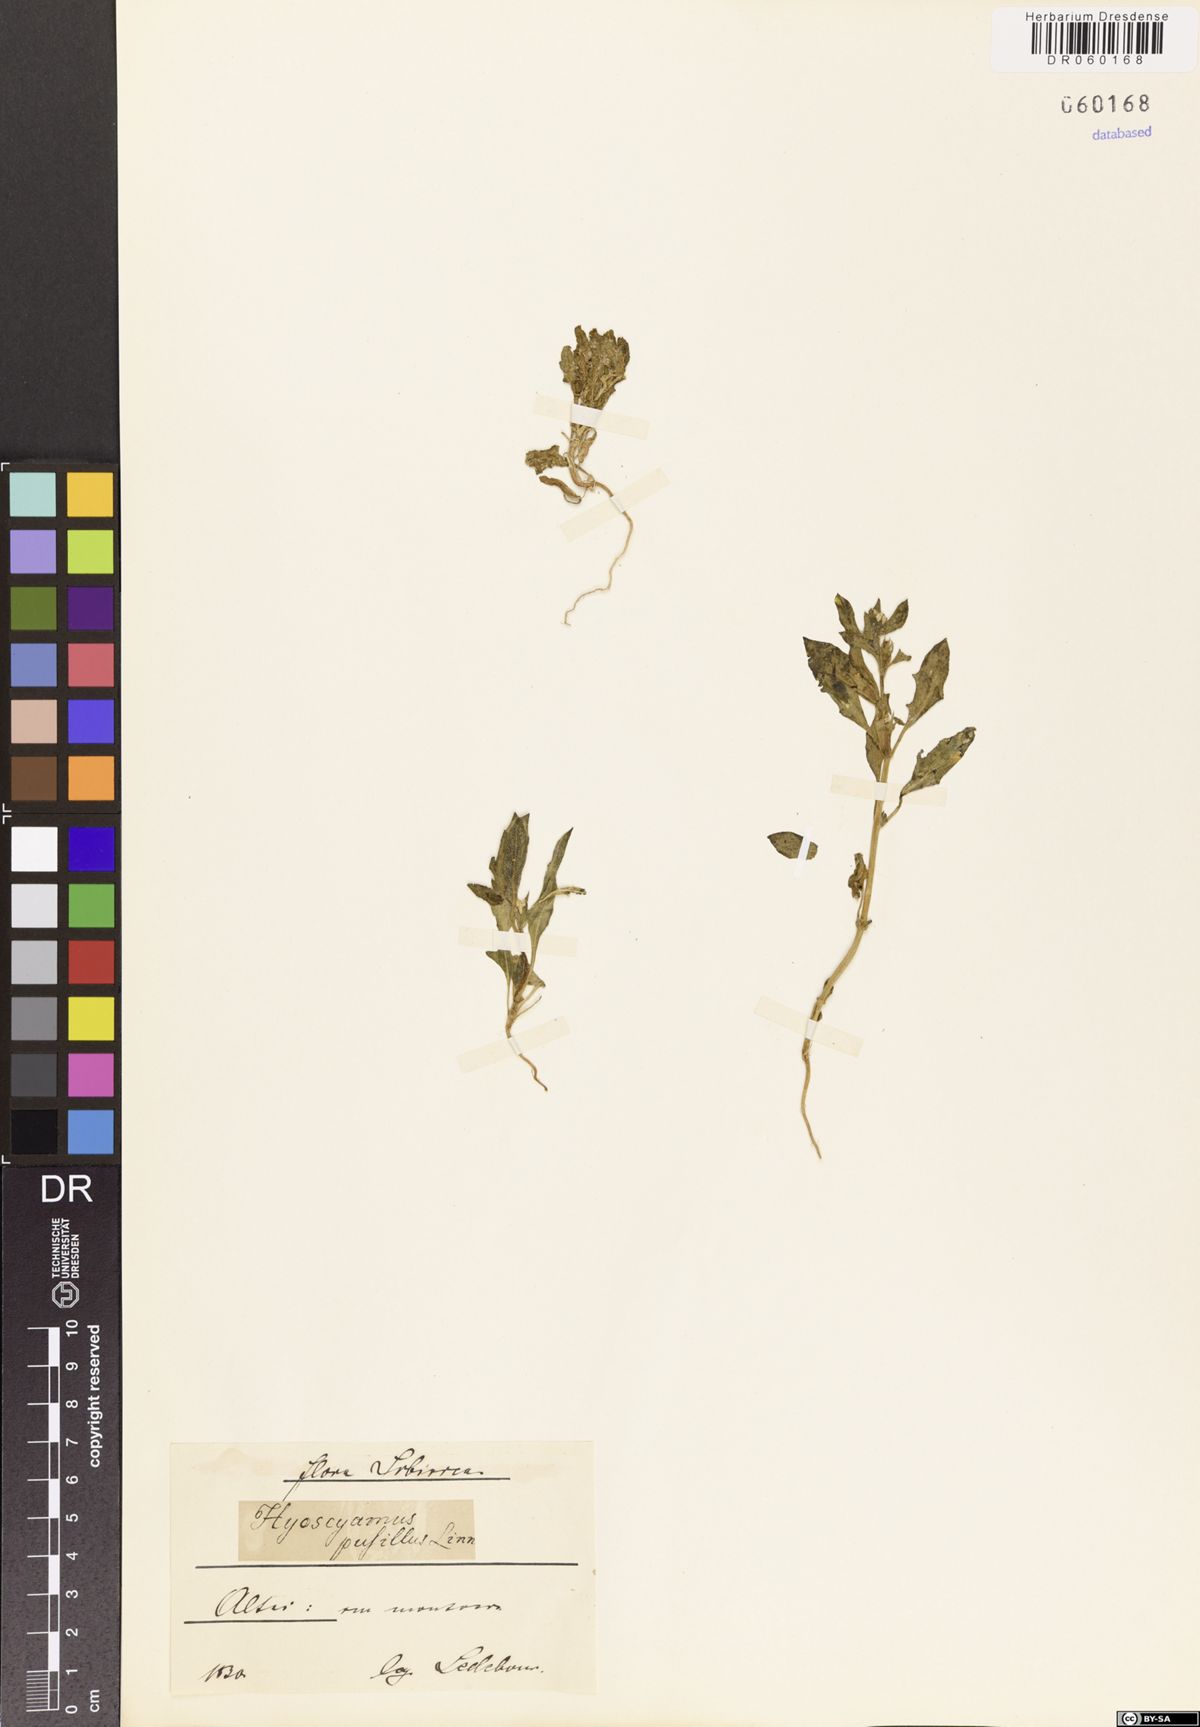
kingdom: Plantae
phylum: Tracheophyta
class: Magnoliopsida
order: Solanales
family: Solanaceae
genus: Hyoscyamus
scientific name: Hyoscyamus pusillus
